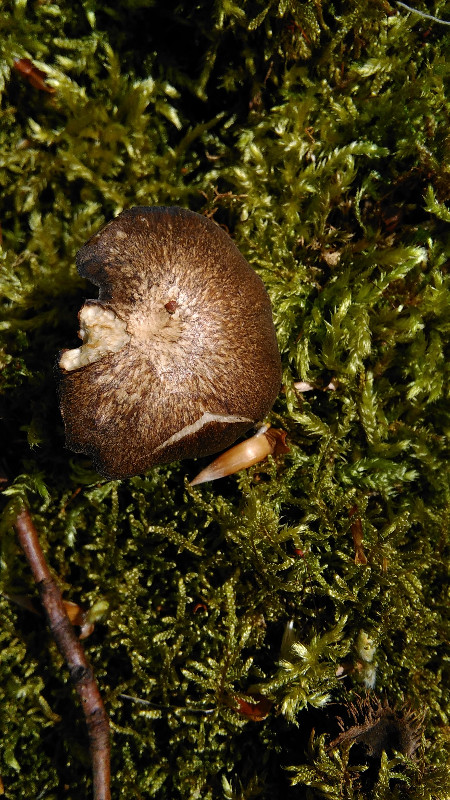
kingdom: Fungi
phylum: Basidiomycota
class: Agaricomycetes
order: Polyporales
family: Polyporaceae
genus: Lentinus
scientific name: Lentinus substrictus
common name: forårs-stilkporesvamp
